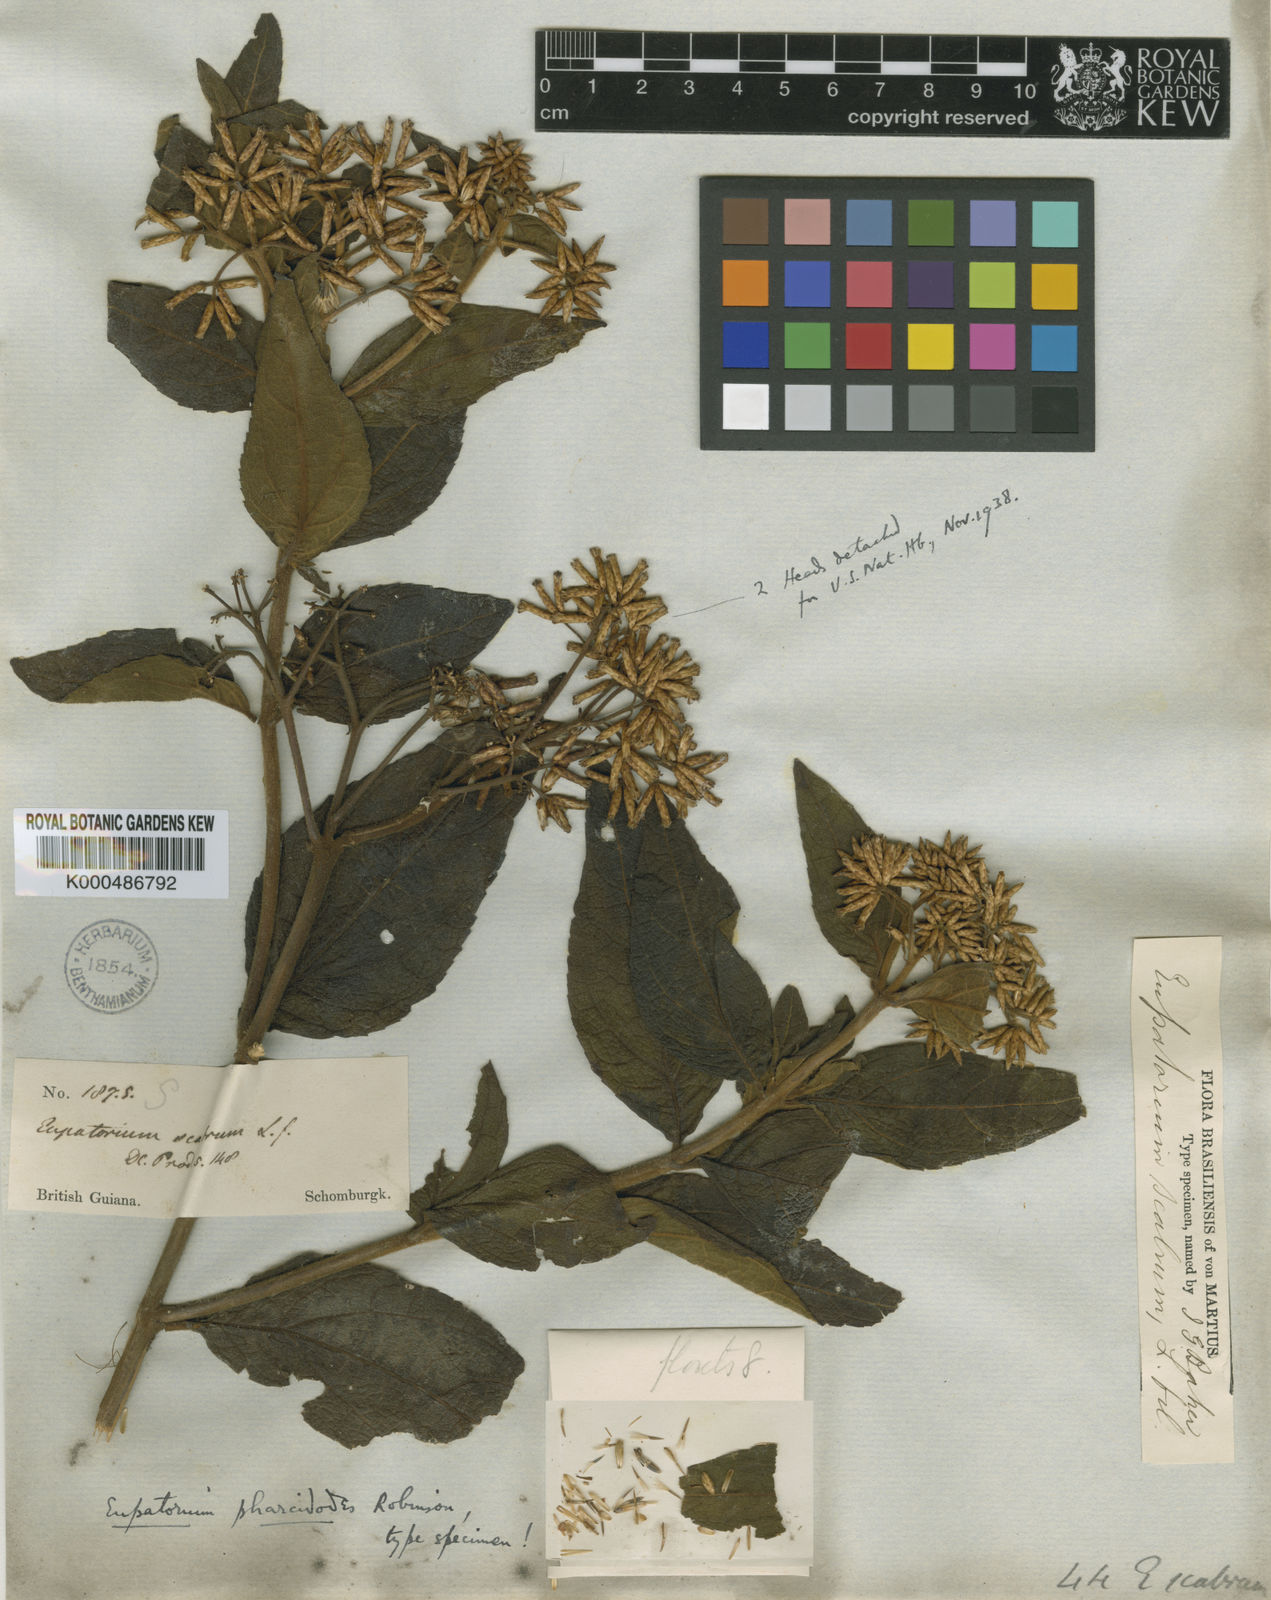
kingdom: Plantae
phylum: Tracheophyta
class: Magnoliopsida
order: Asterales
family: Asteraceae
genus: Chromolaena
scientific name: Chromolaena pharcidodes
